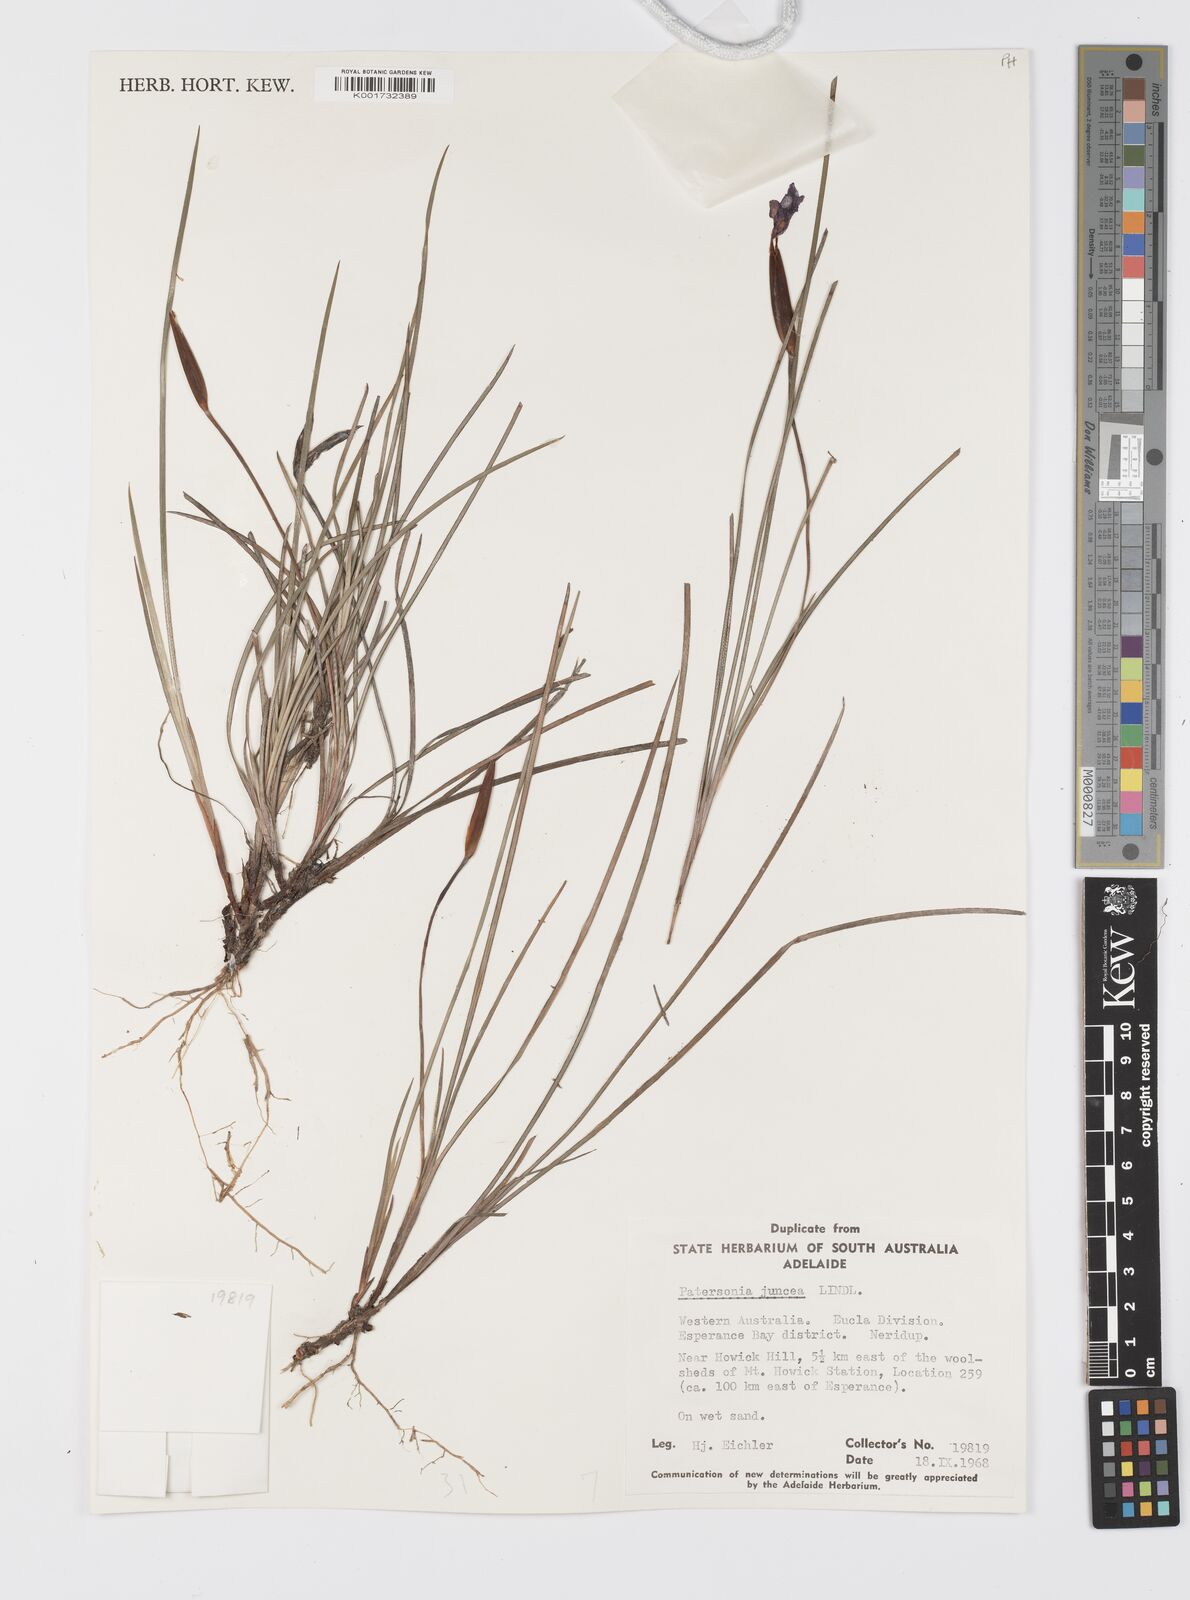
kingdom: Plantae
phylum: Tracheophyta
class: Liliopsida
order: Asparagales
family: Iridaceae
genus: Patersonia
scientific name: Patersonia juncea
